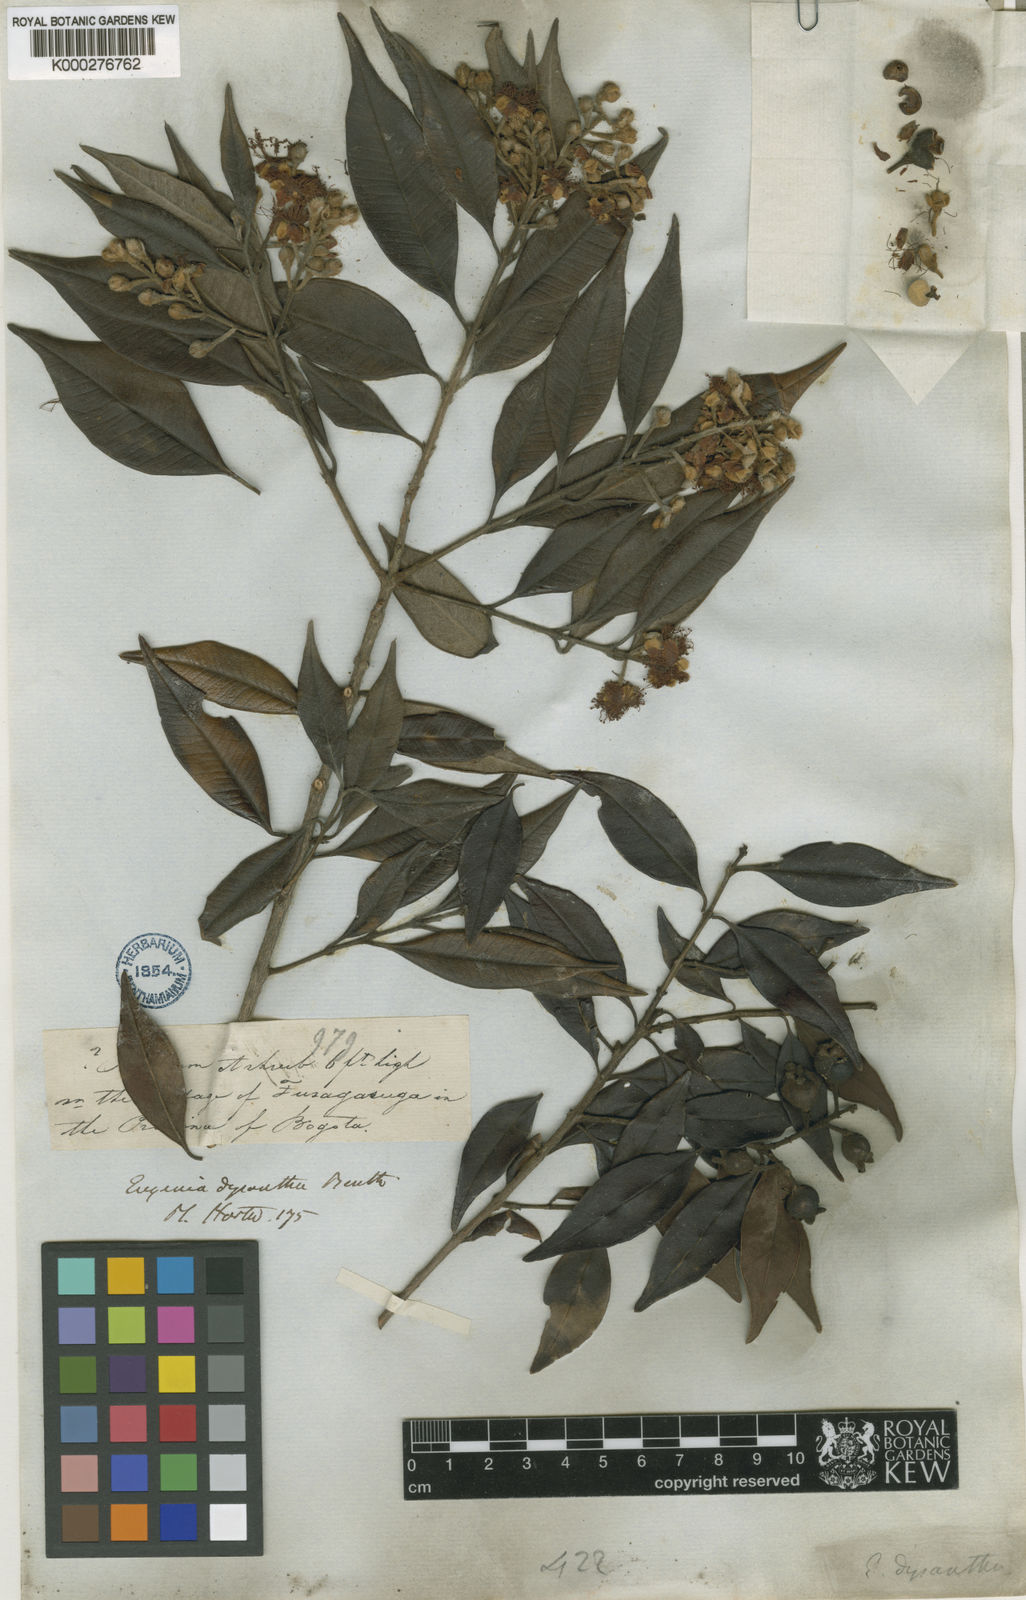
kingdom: Plantae
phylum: Tracheophyta
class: Magnoliopsida
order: Myrtales
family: Myrtaceae
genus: Eugenia
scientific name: Eugenia biflora
